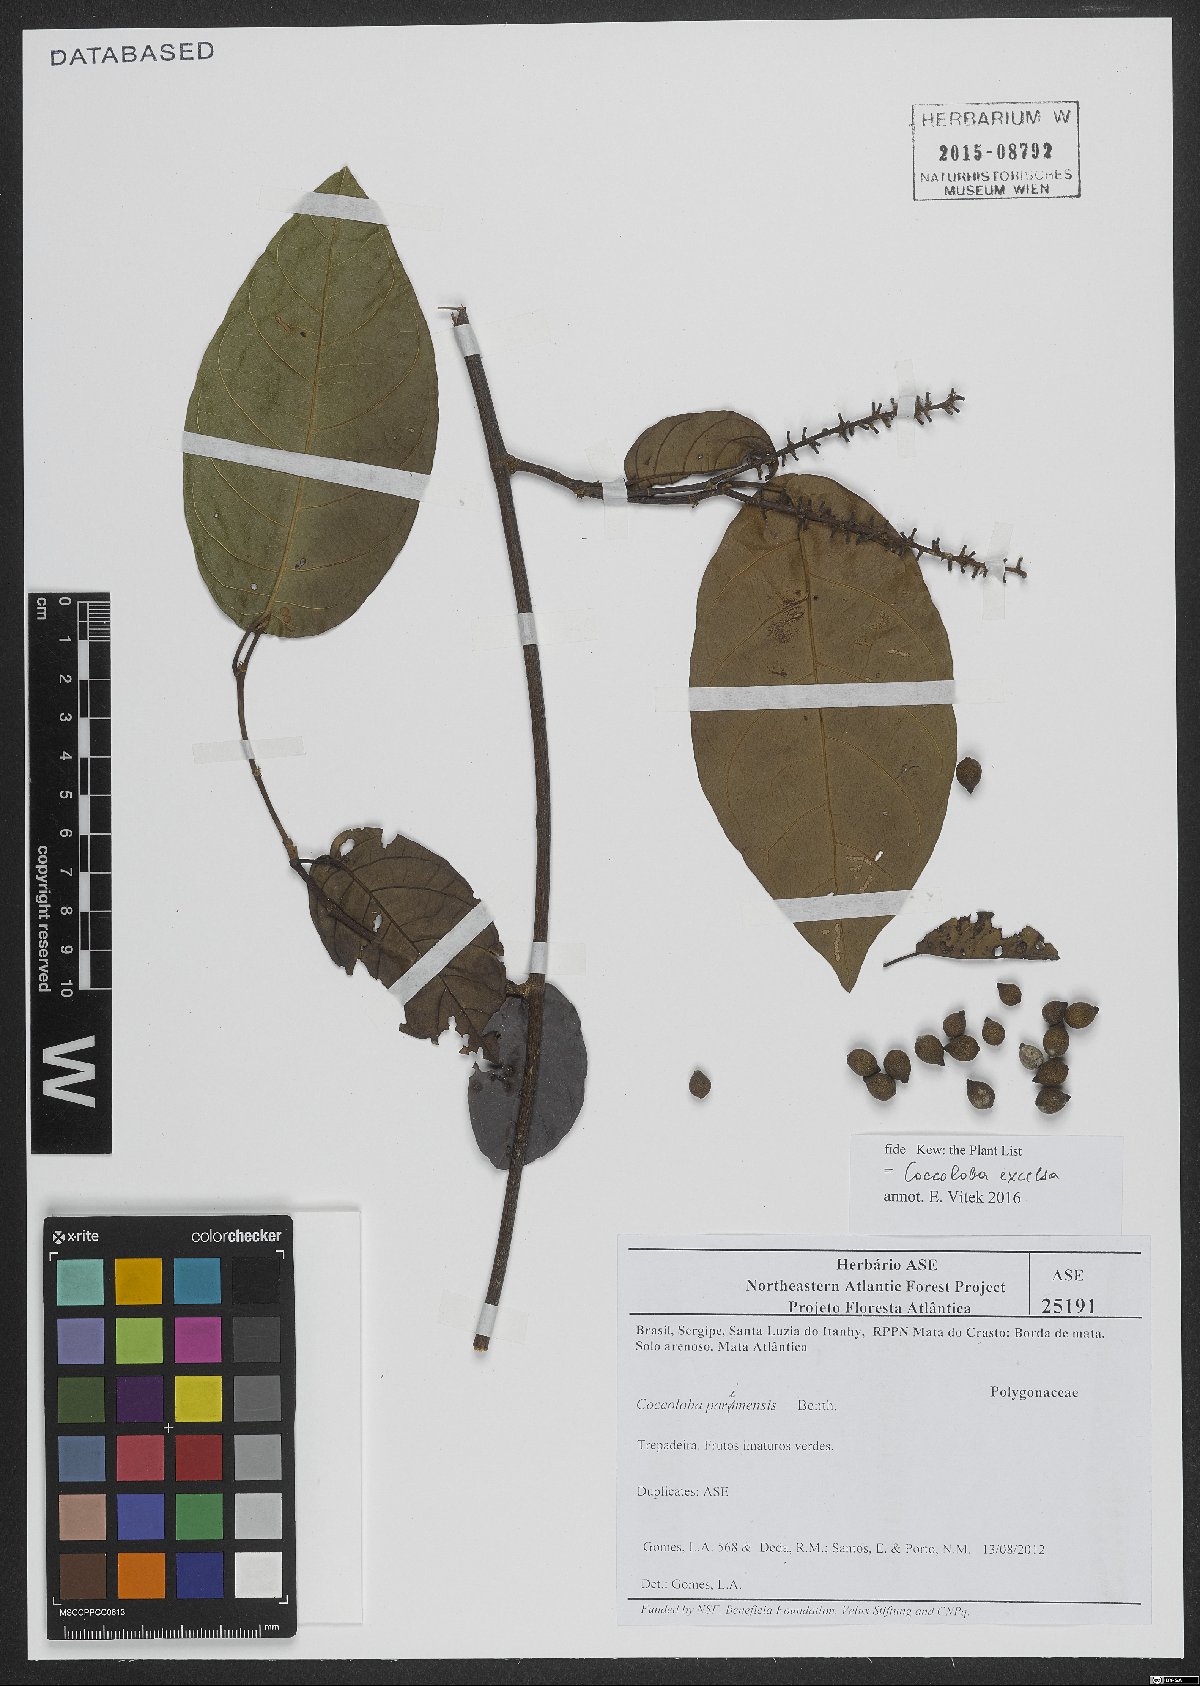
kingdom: Plantae
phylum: Tracheophyta
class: Magnoliopsida
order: Caryophyllales
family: Polygonaceae
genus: Coccoloba
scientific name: Coccoloba excelsa
